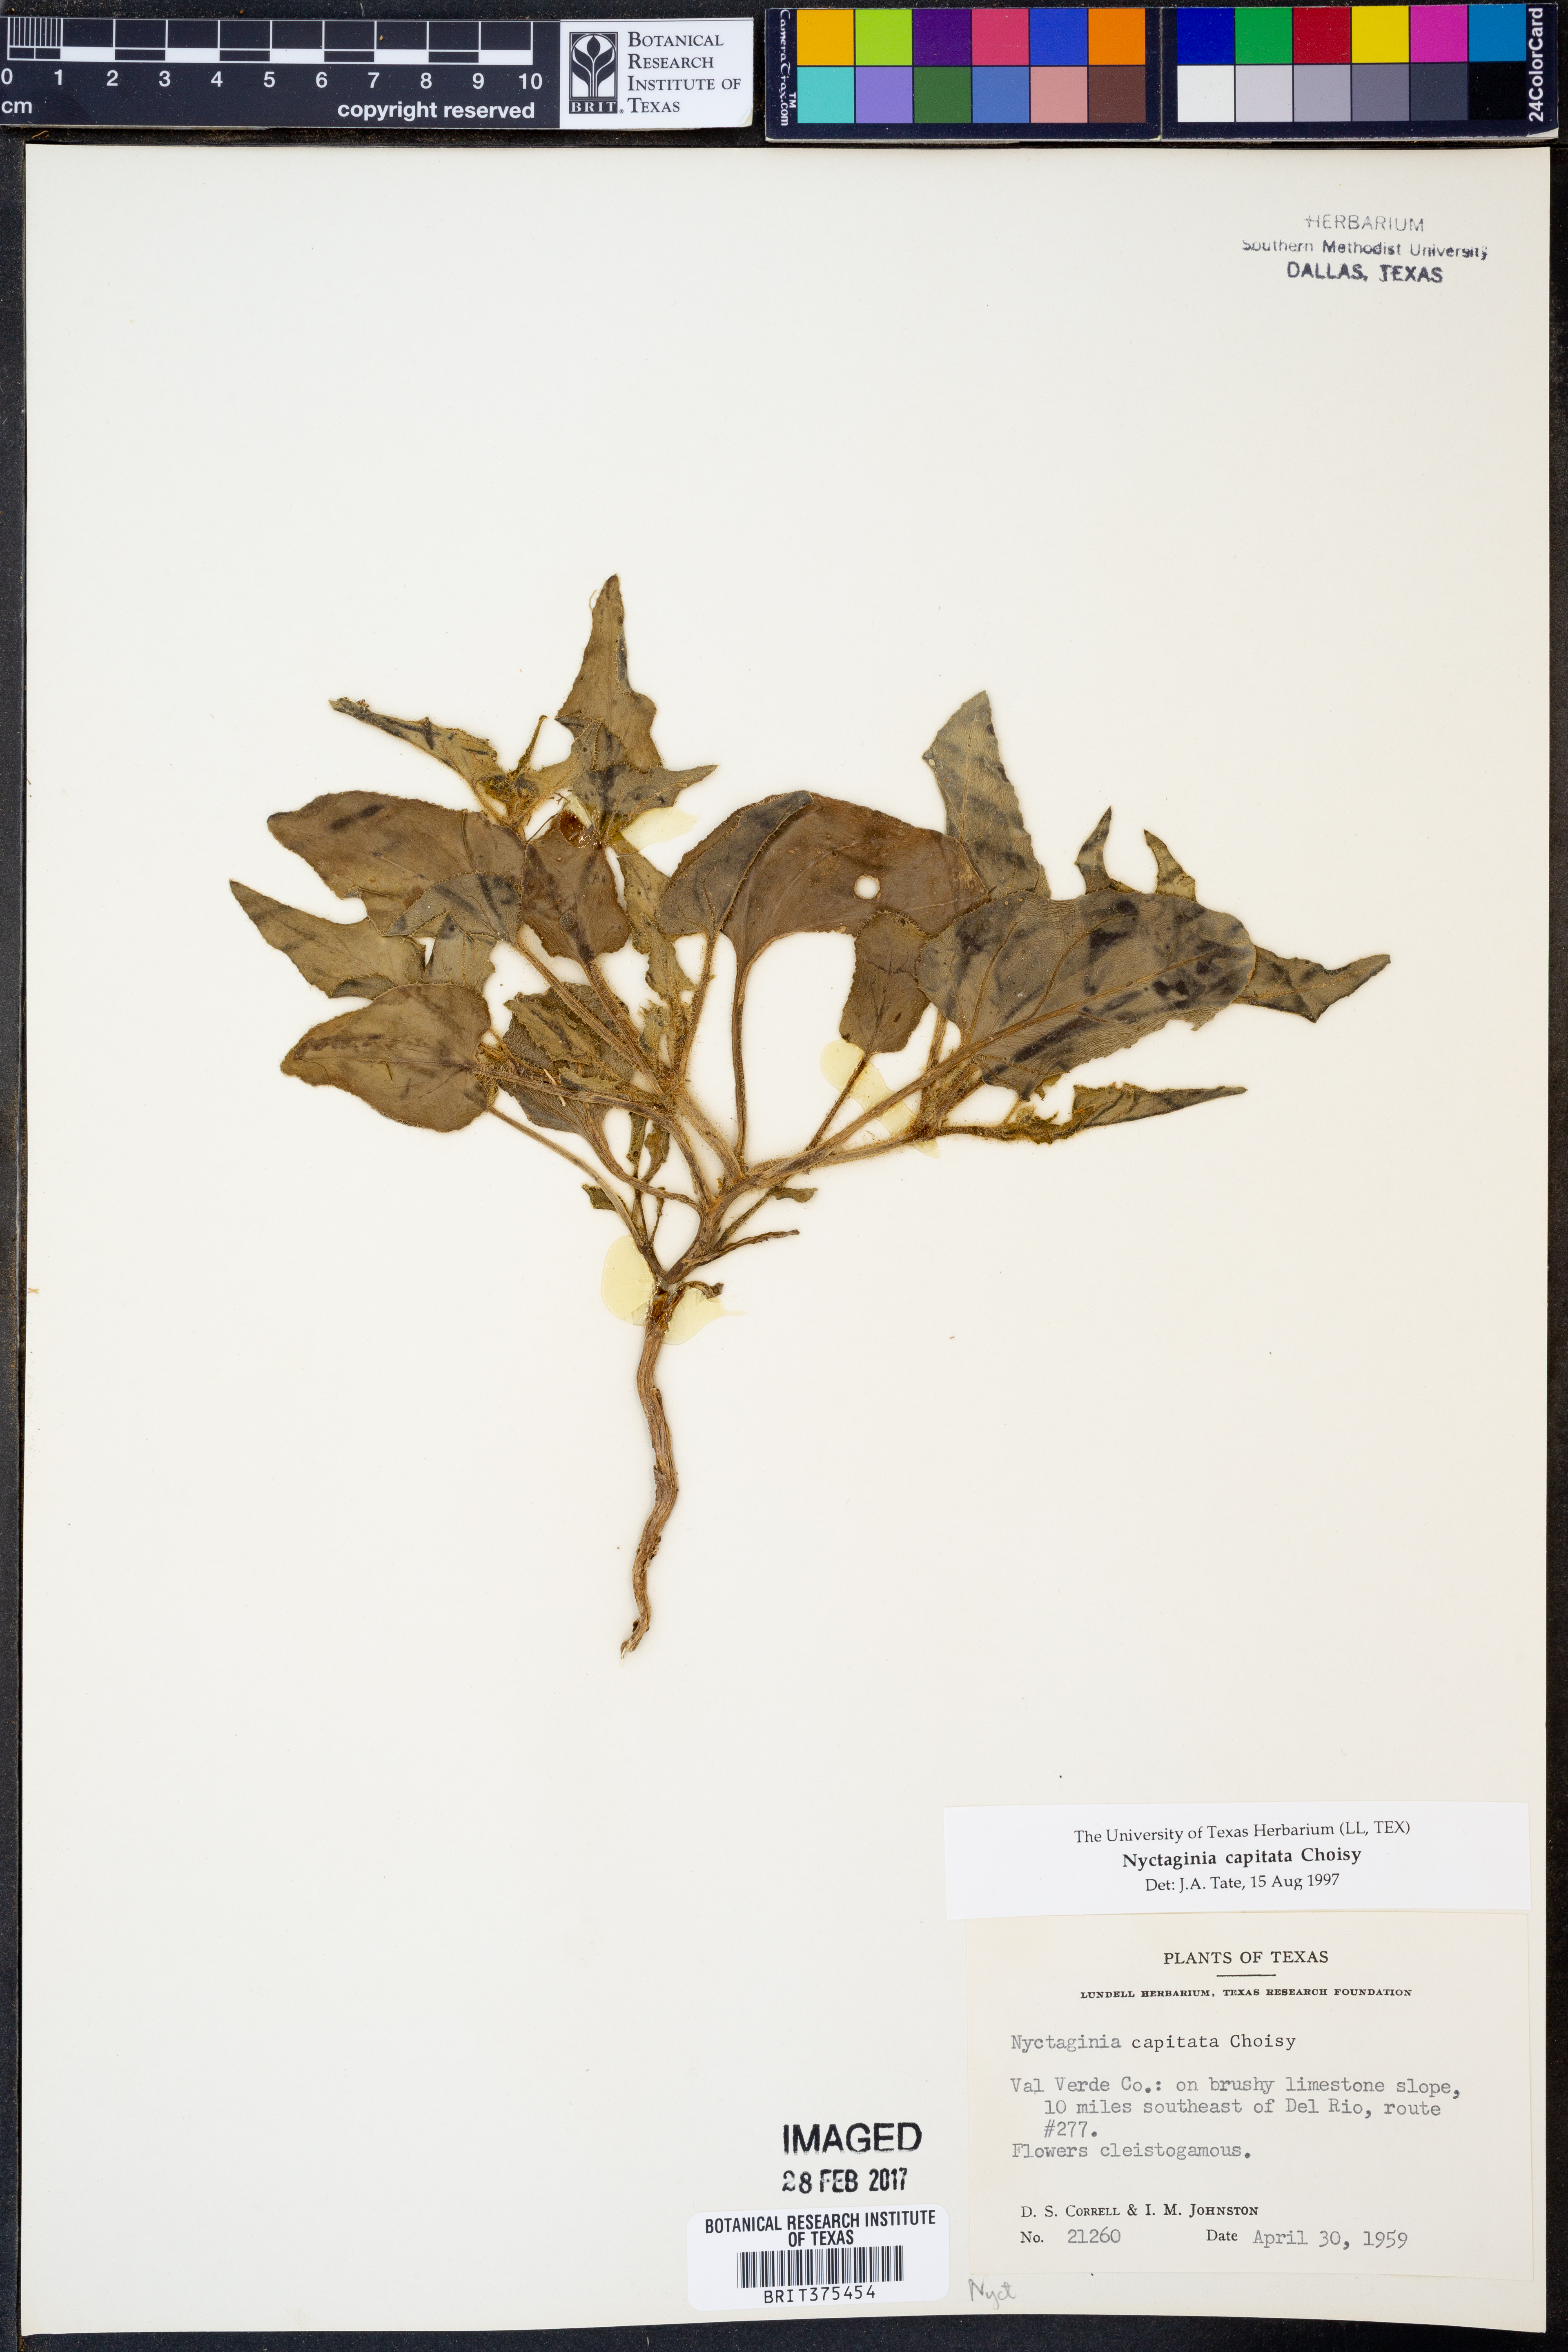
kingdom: Plantae
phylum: Tracheophyta
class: Magnoliopsida
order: Caryophyllales
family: Nyctaginaceae
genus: Nyctaginia
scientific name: Nyctaginia capitata
